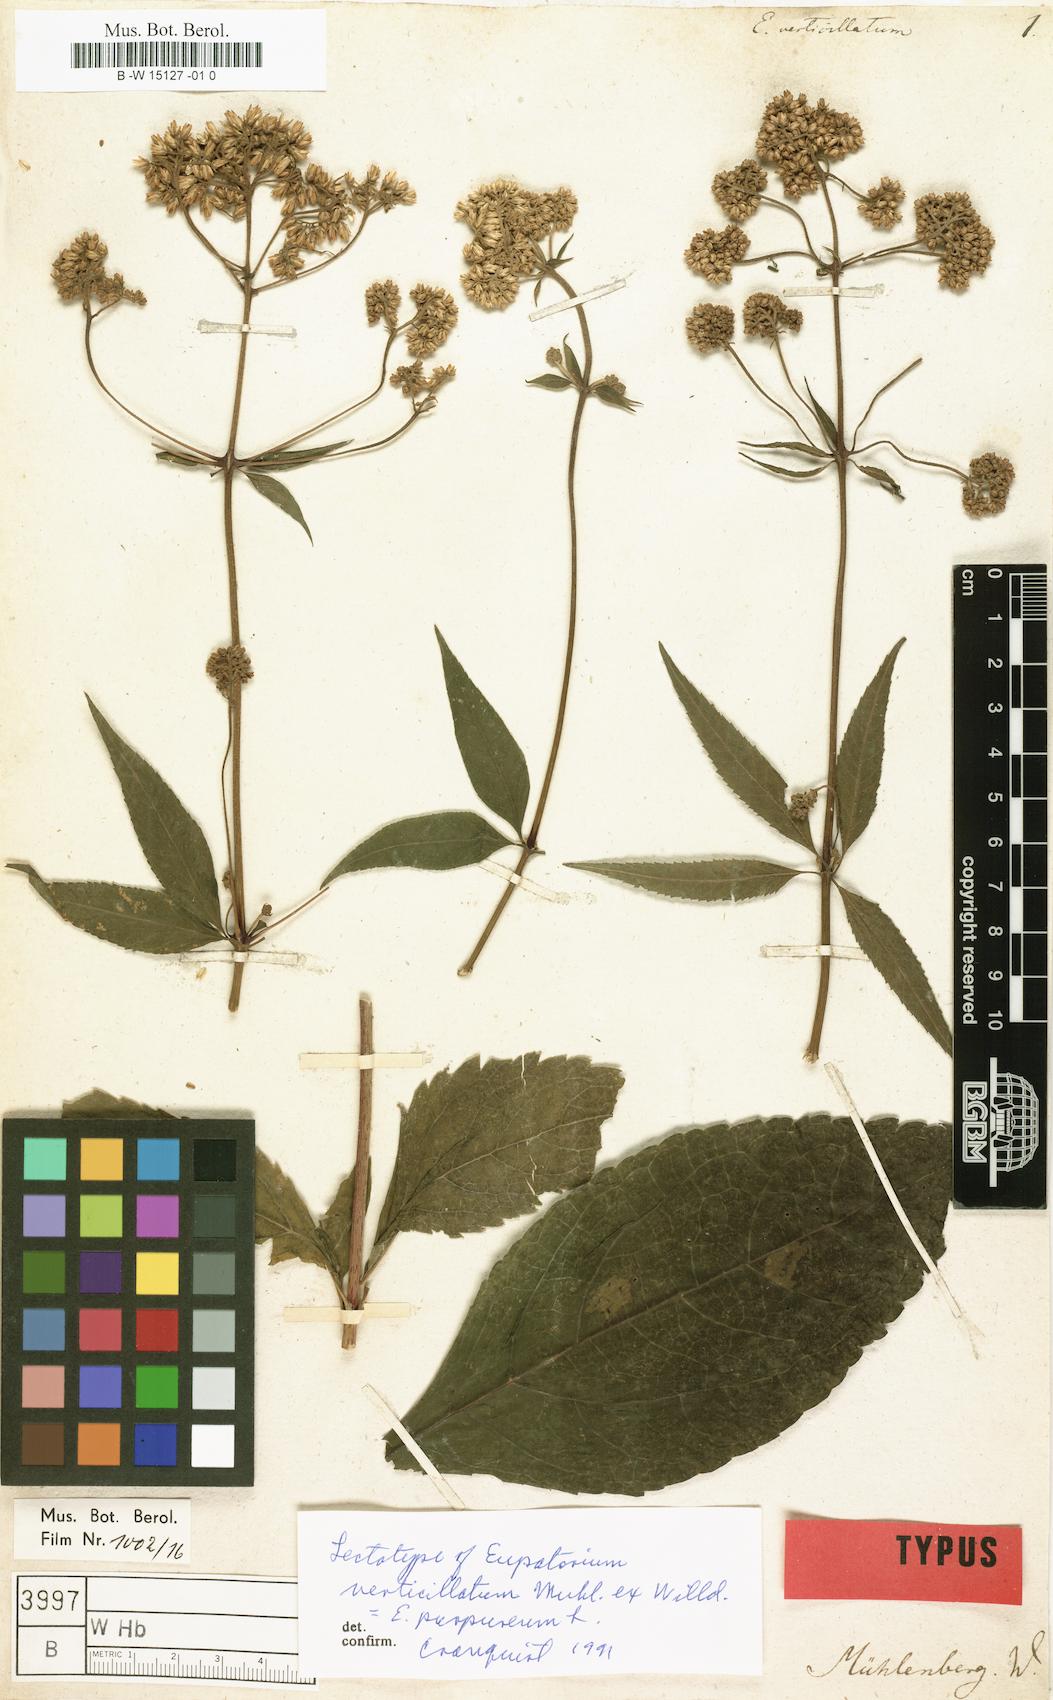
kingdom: Plantae
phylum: Tracheophyta
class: Magnoliopsida
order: Asterales
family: Asteraceae
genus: Eupatorium
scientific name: Eupatorium verticillatum
